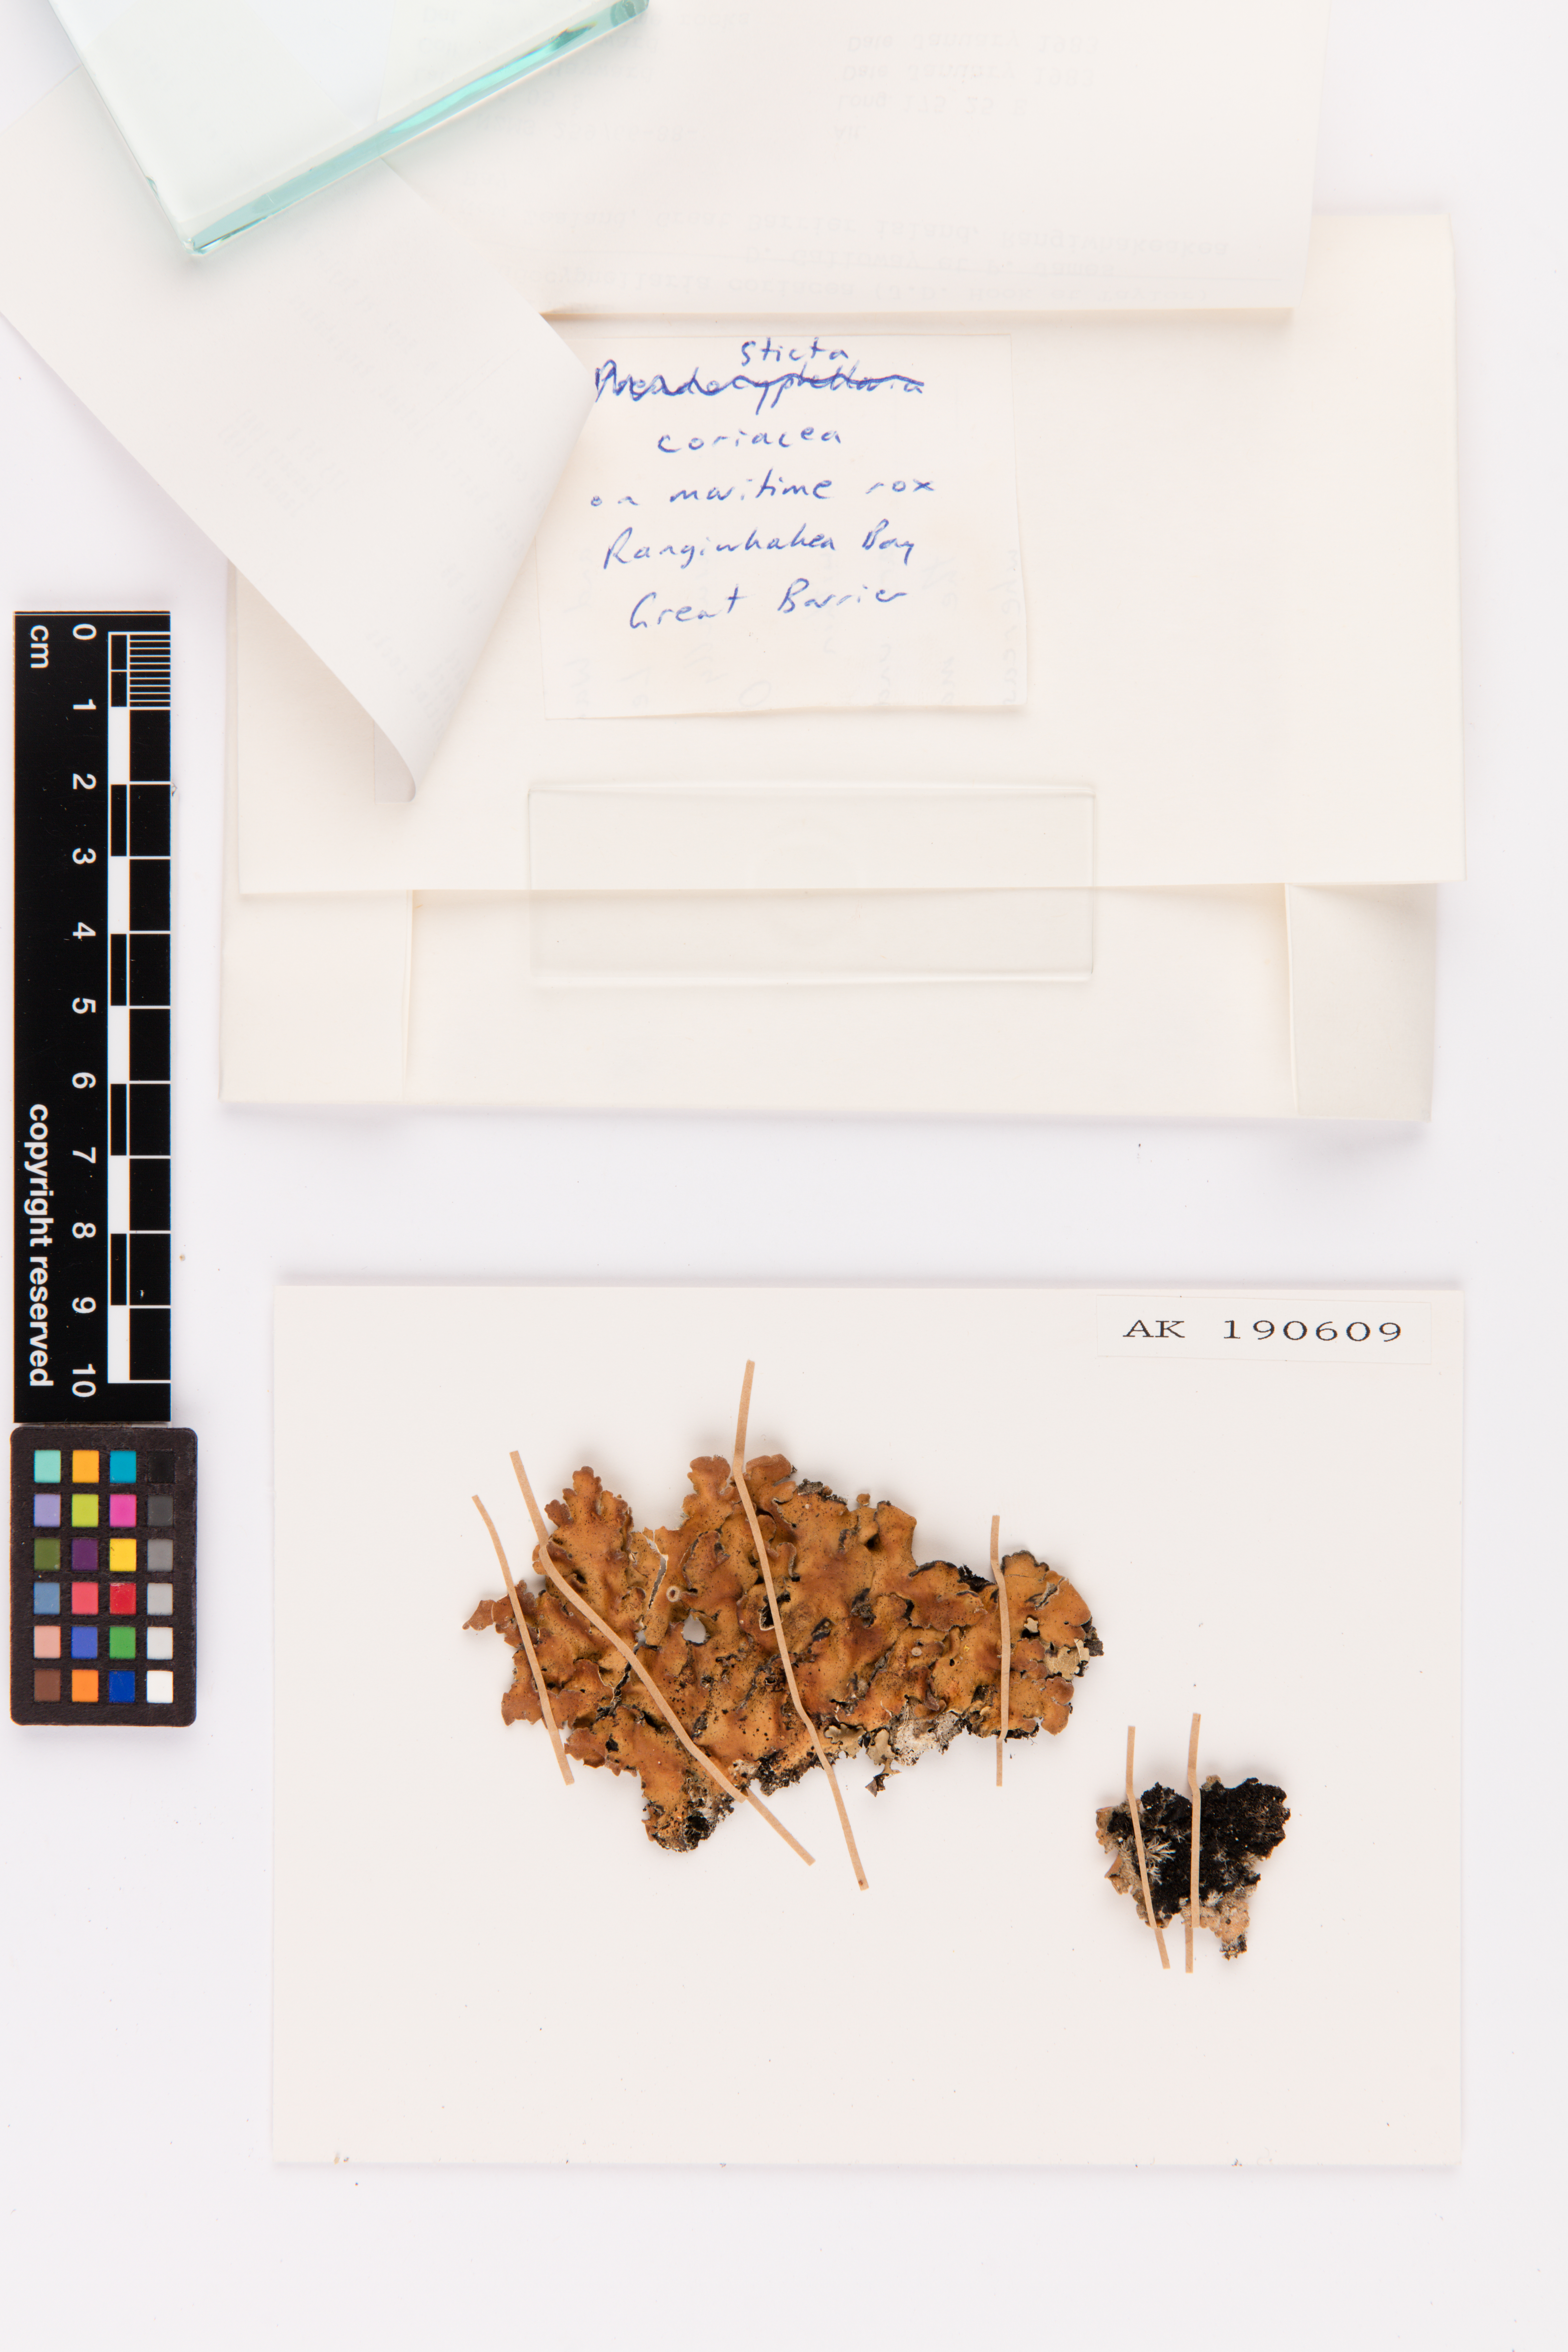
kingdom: Fungi
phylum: Ascomycota
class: Lecanoromycetes
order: Peltigerales
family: Lobariaceae
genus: Pseudocyphellaria
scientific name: Pseudocyphellaria coriacea
